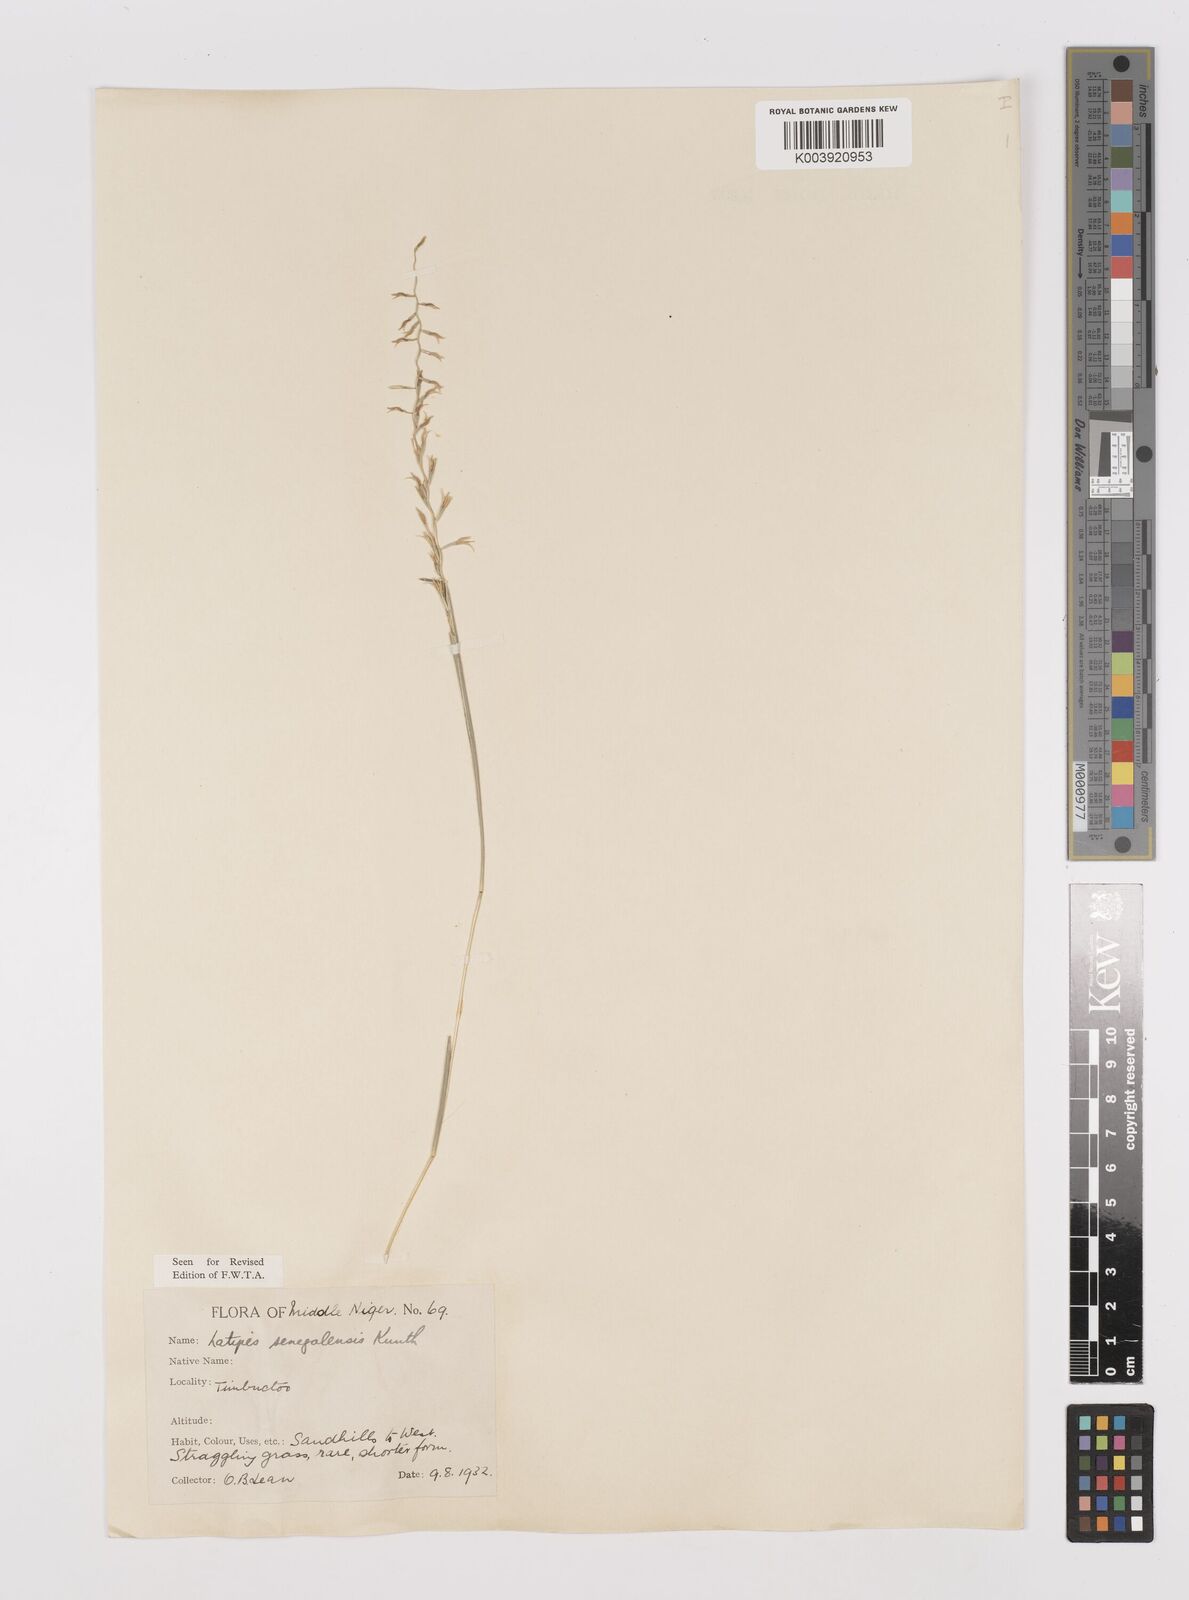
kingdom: Plantae
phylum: Tracheophyta
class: Liliopsida
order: Poales
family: Poaceae
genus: Leptothrium
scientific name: Leptothrium senegalense
